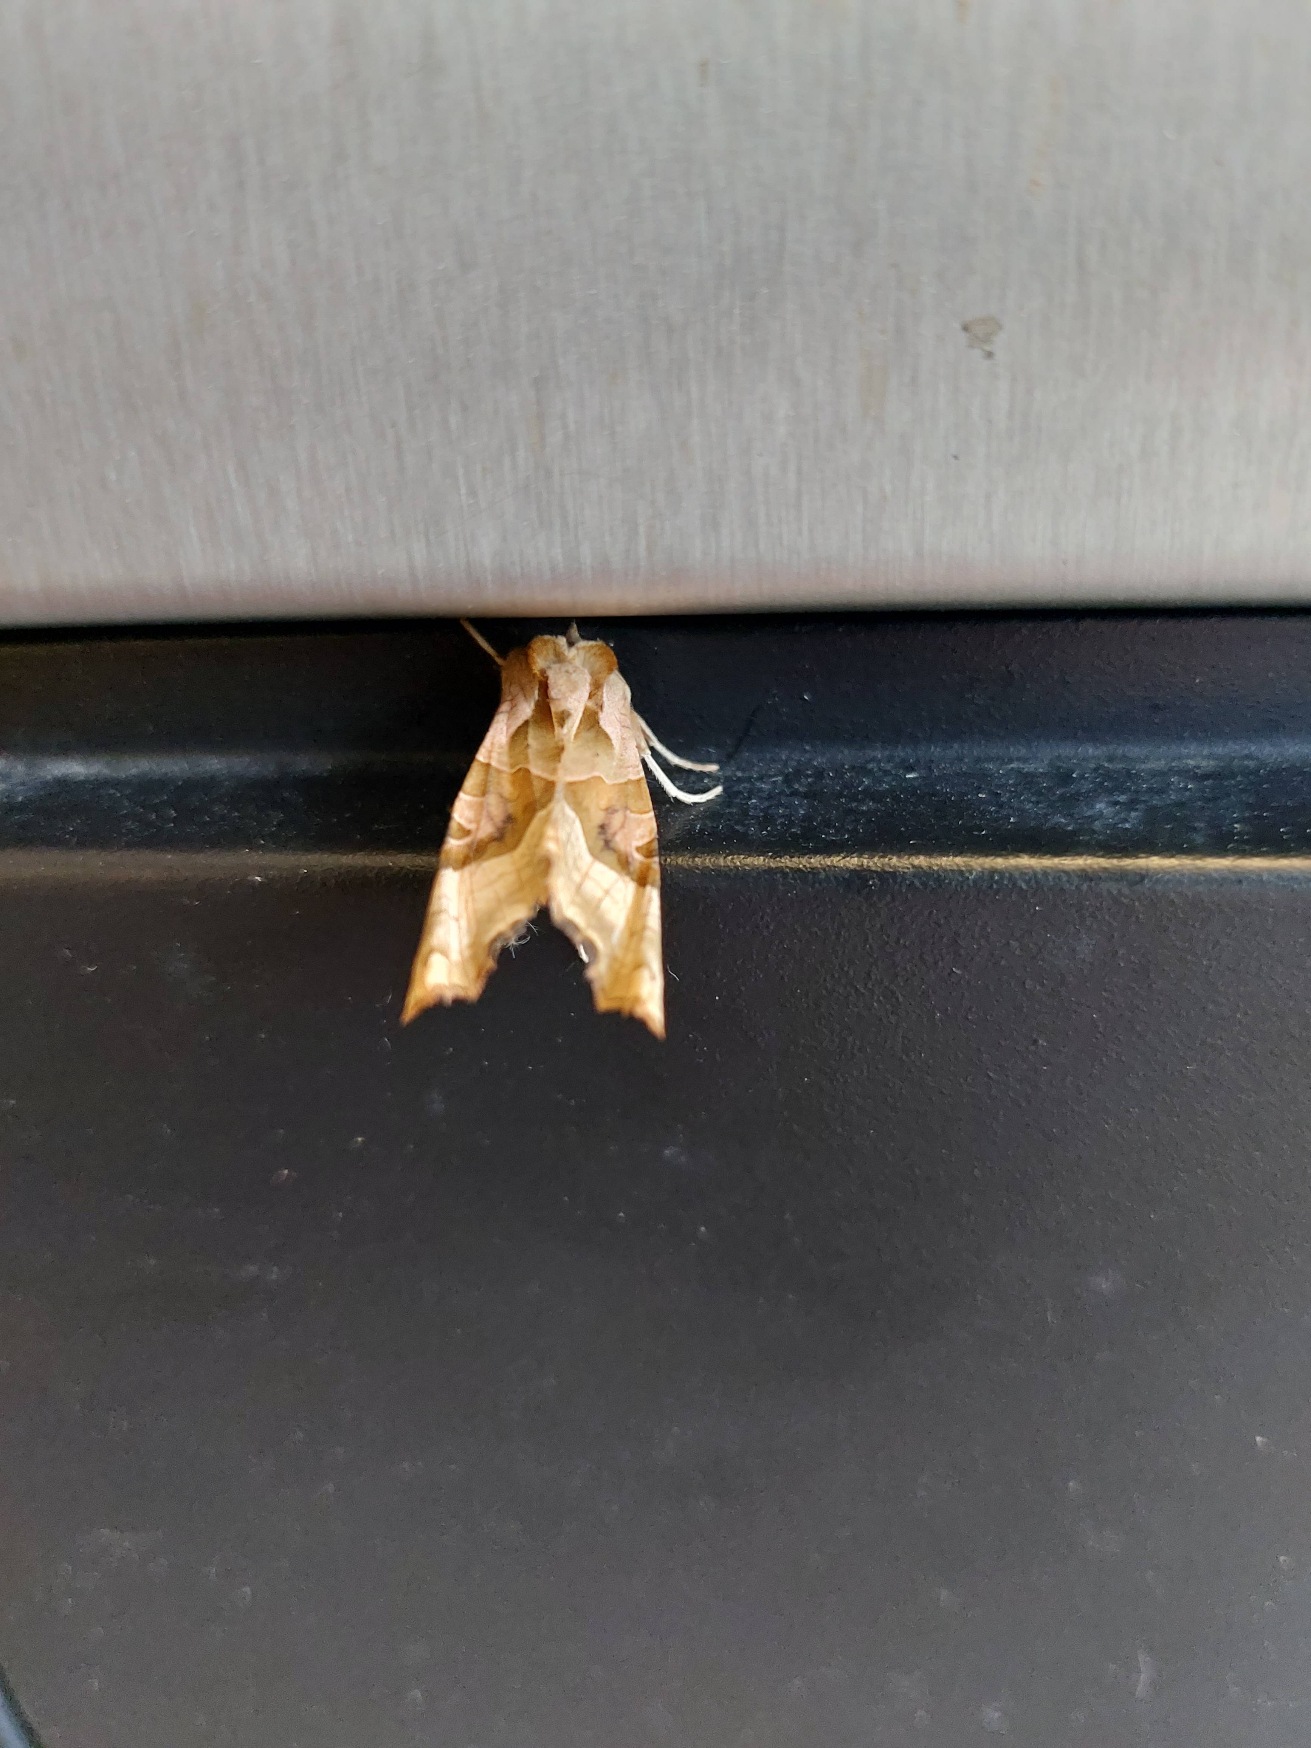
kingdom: Animalia
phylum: Arthropoda
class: Insecta
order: Lepidoptera
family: Noctuidae
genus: Phlogophora
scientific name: Phlogophora meticulosa
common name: Agatugle
